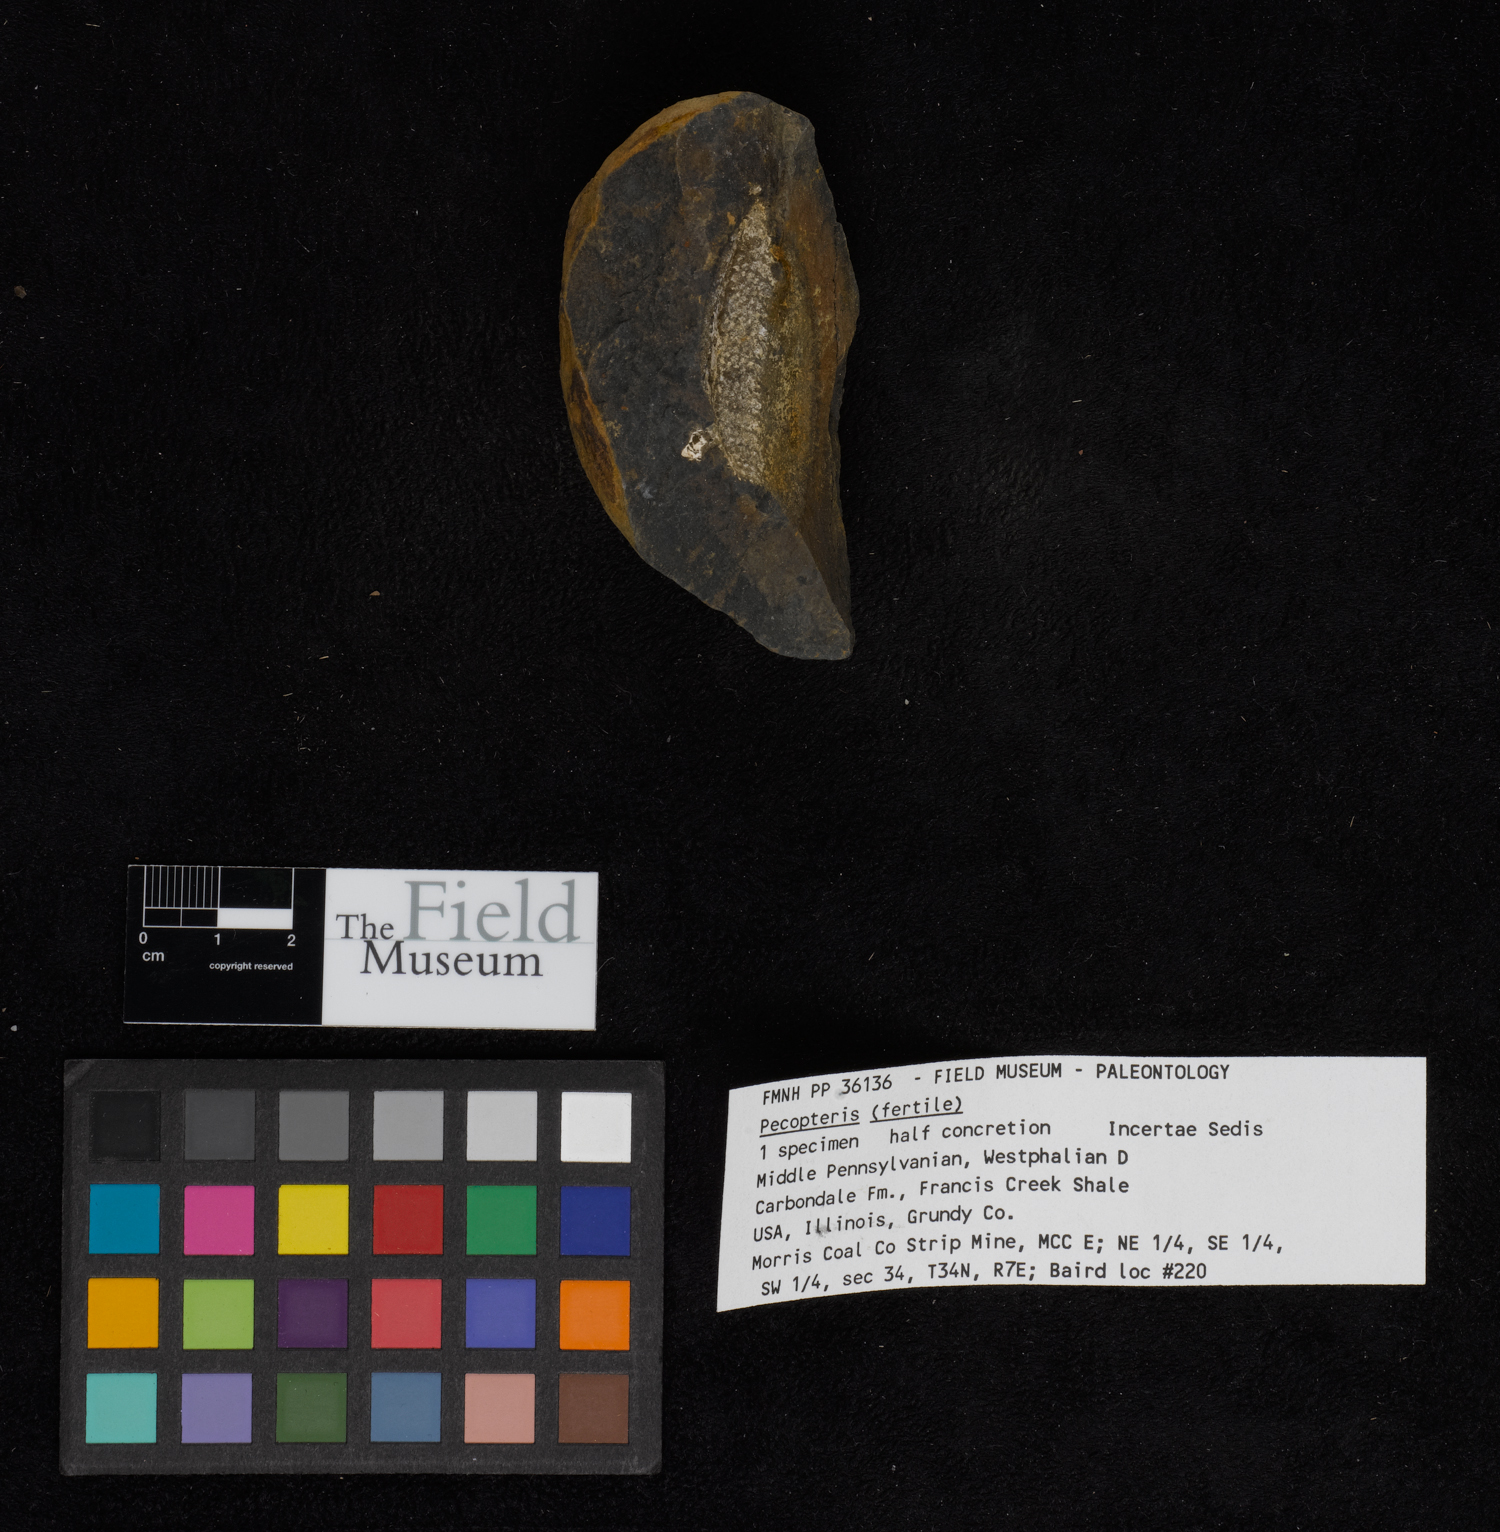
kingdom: Plantae
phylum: Tracheophyta
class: Polypodiopsida
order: Marattiales
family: Asterothecaceae
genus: Pecopteris
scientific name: Pecopteris
